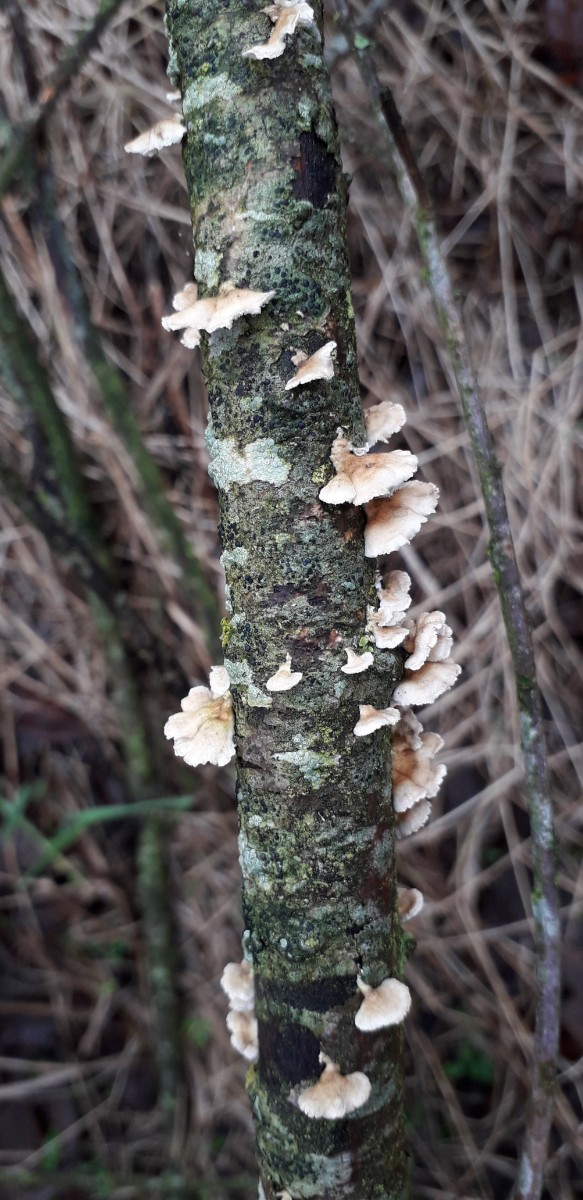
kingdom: Fungi
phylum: Basidiomycota
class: Agaricomycetes
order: Amylocorticiales
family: Amylocorticiaceae
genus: Plicaturopsis
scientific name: Plicaturopsis crispa
